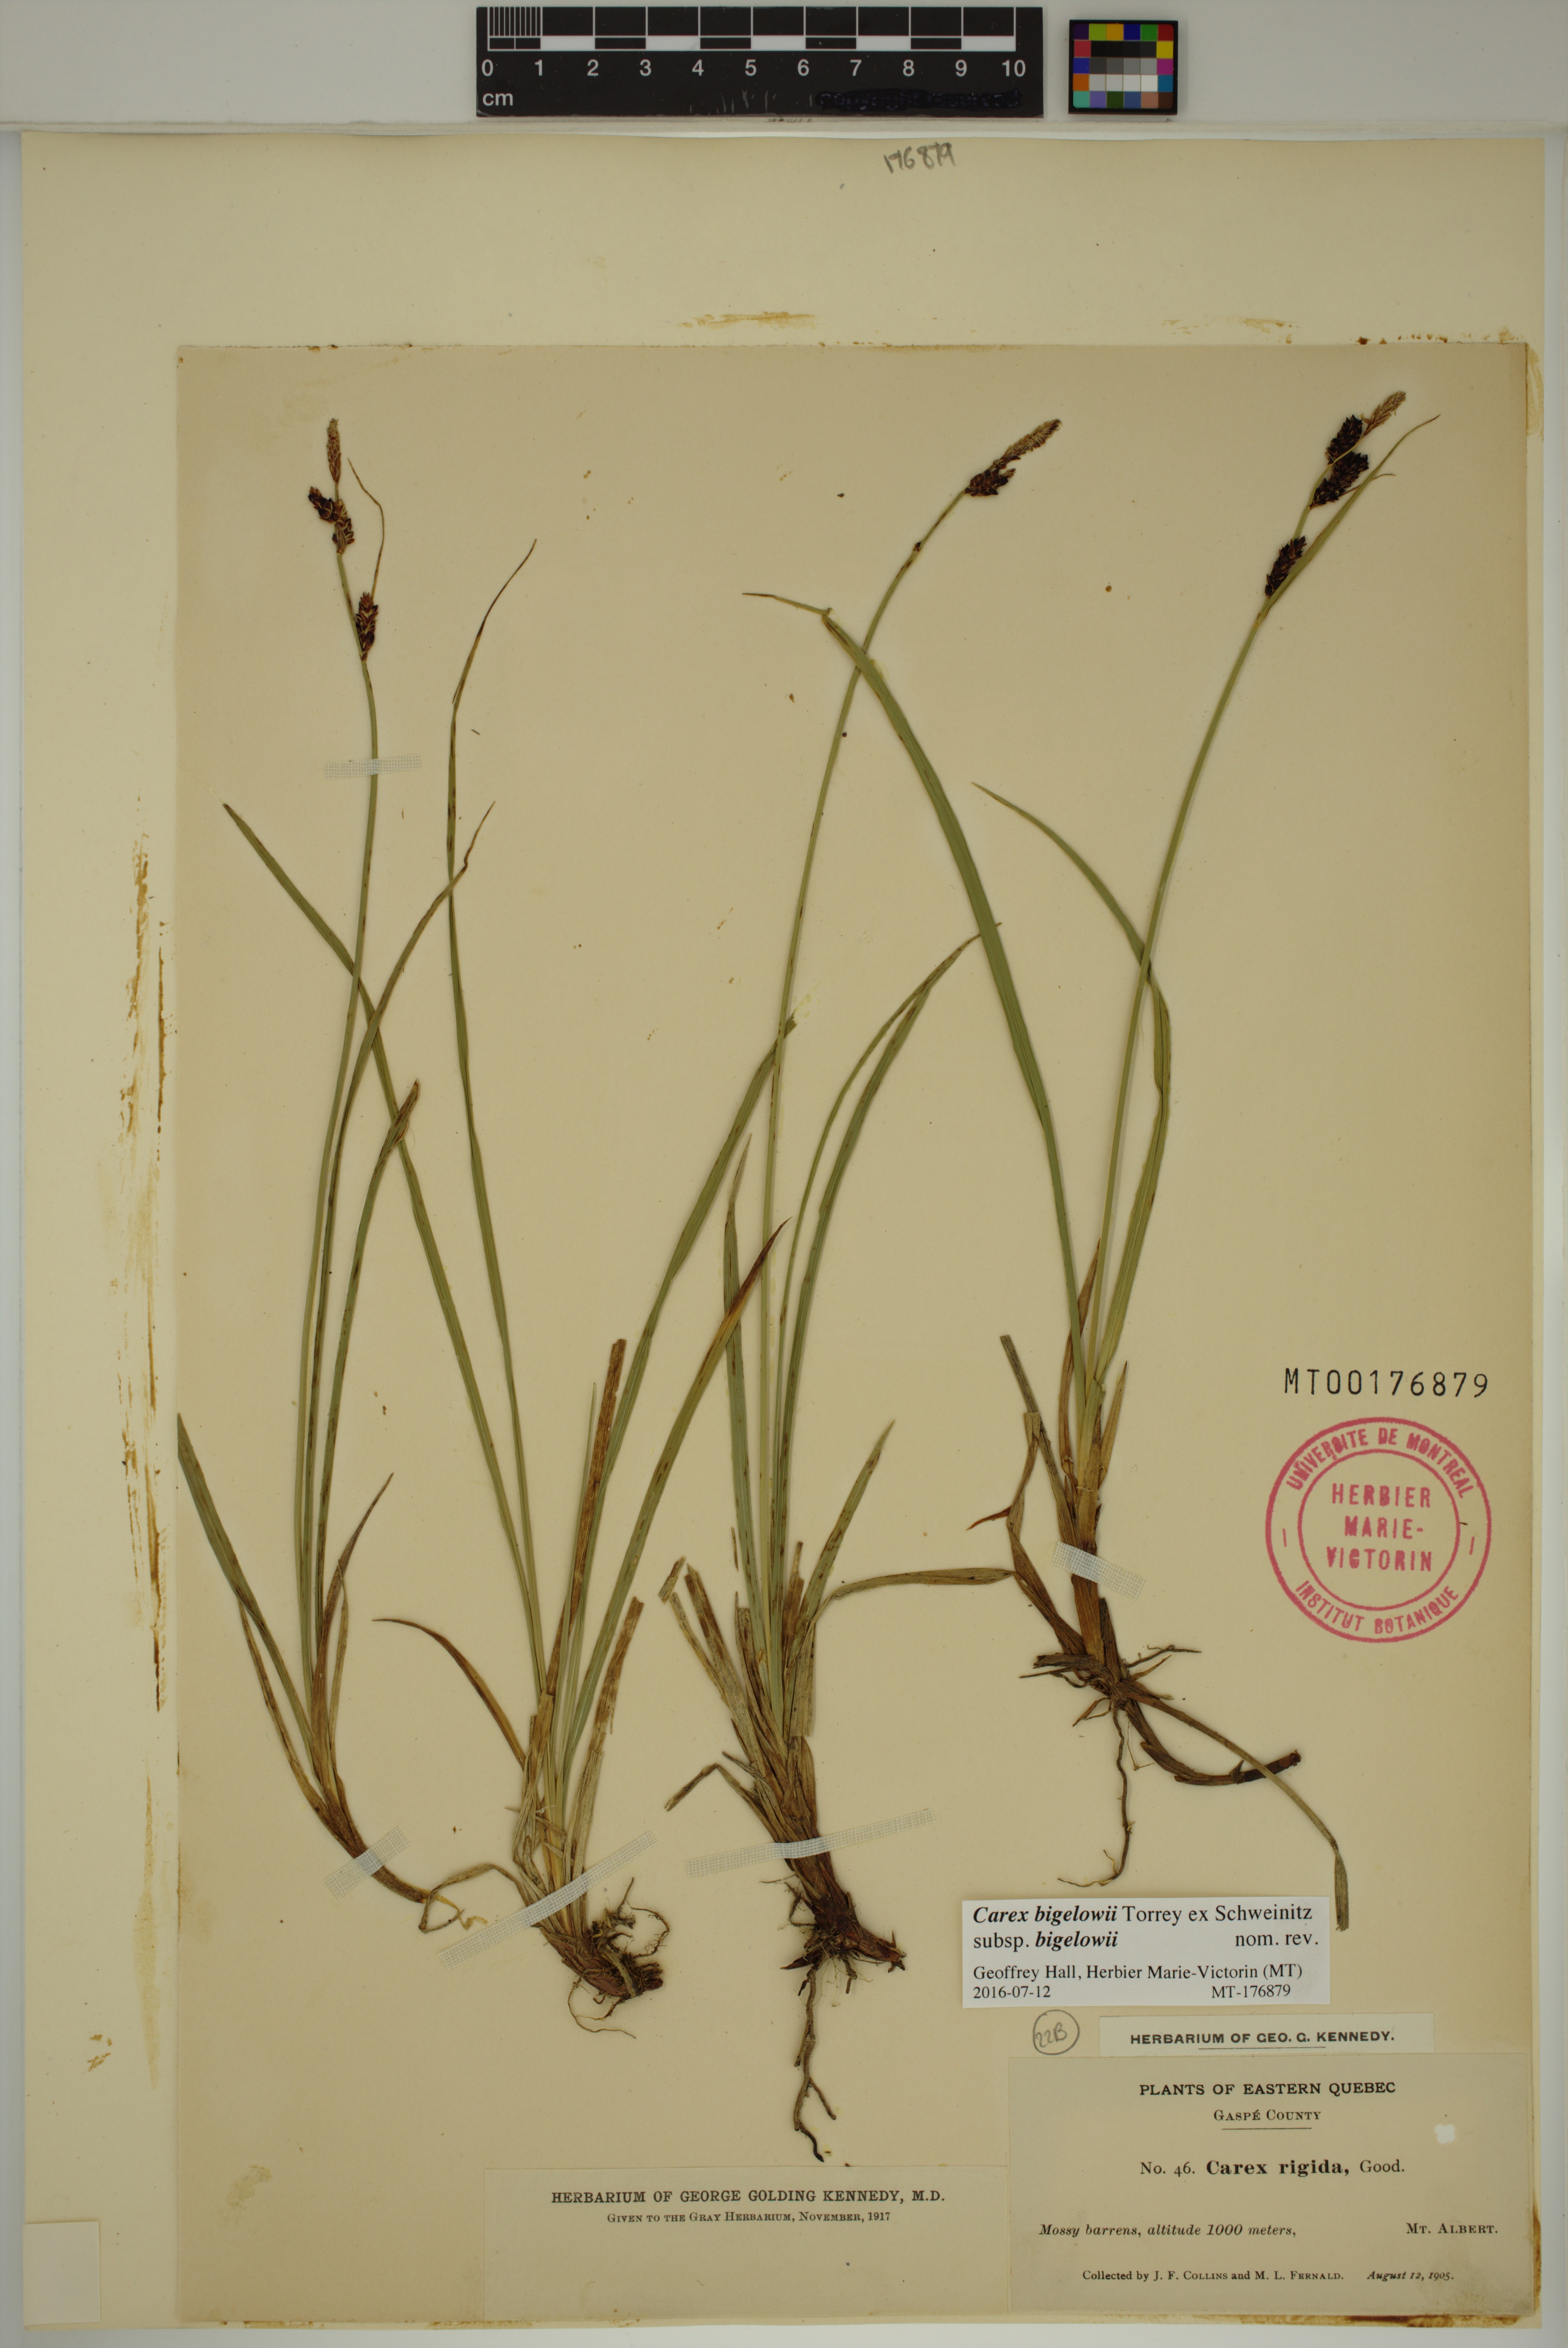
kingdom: Plantae
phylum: Tracheophyta
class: Liliopsida
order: Poales
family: Cyperaceae
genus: Carex
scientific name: Carex bigelowii
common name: Stiff sedge
